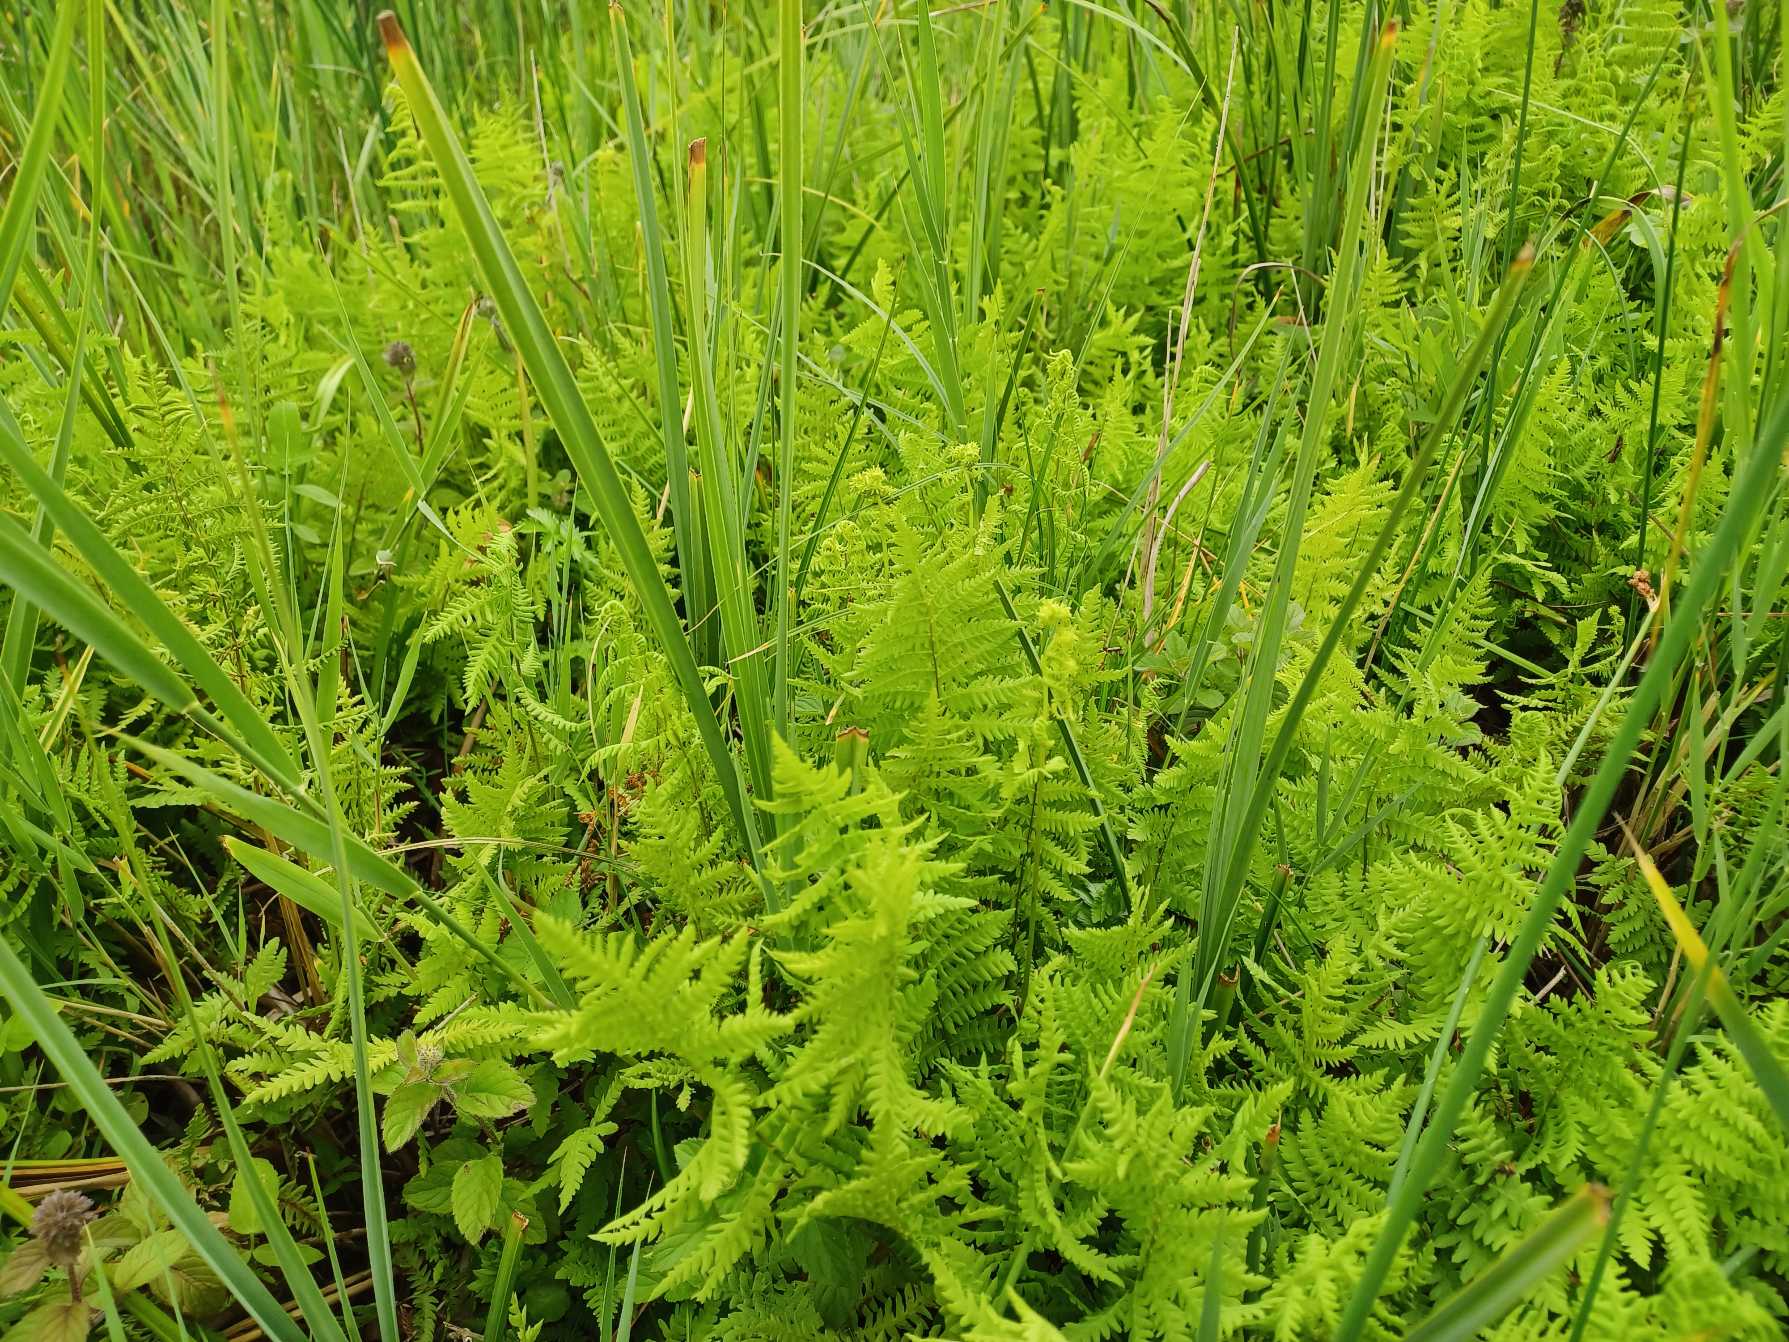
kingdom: Plantae
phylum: Tracheophyta
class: Polypodiopsida
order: Polypodiales
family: Thelypteridaceae
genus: Thelypteris
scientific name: Thelypteris palustris
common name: Kærmangeløv
